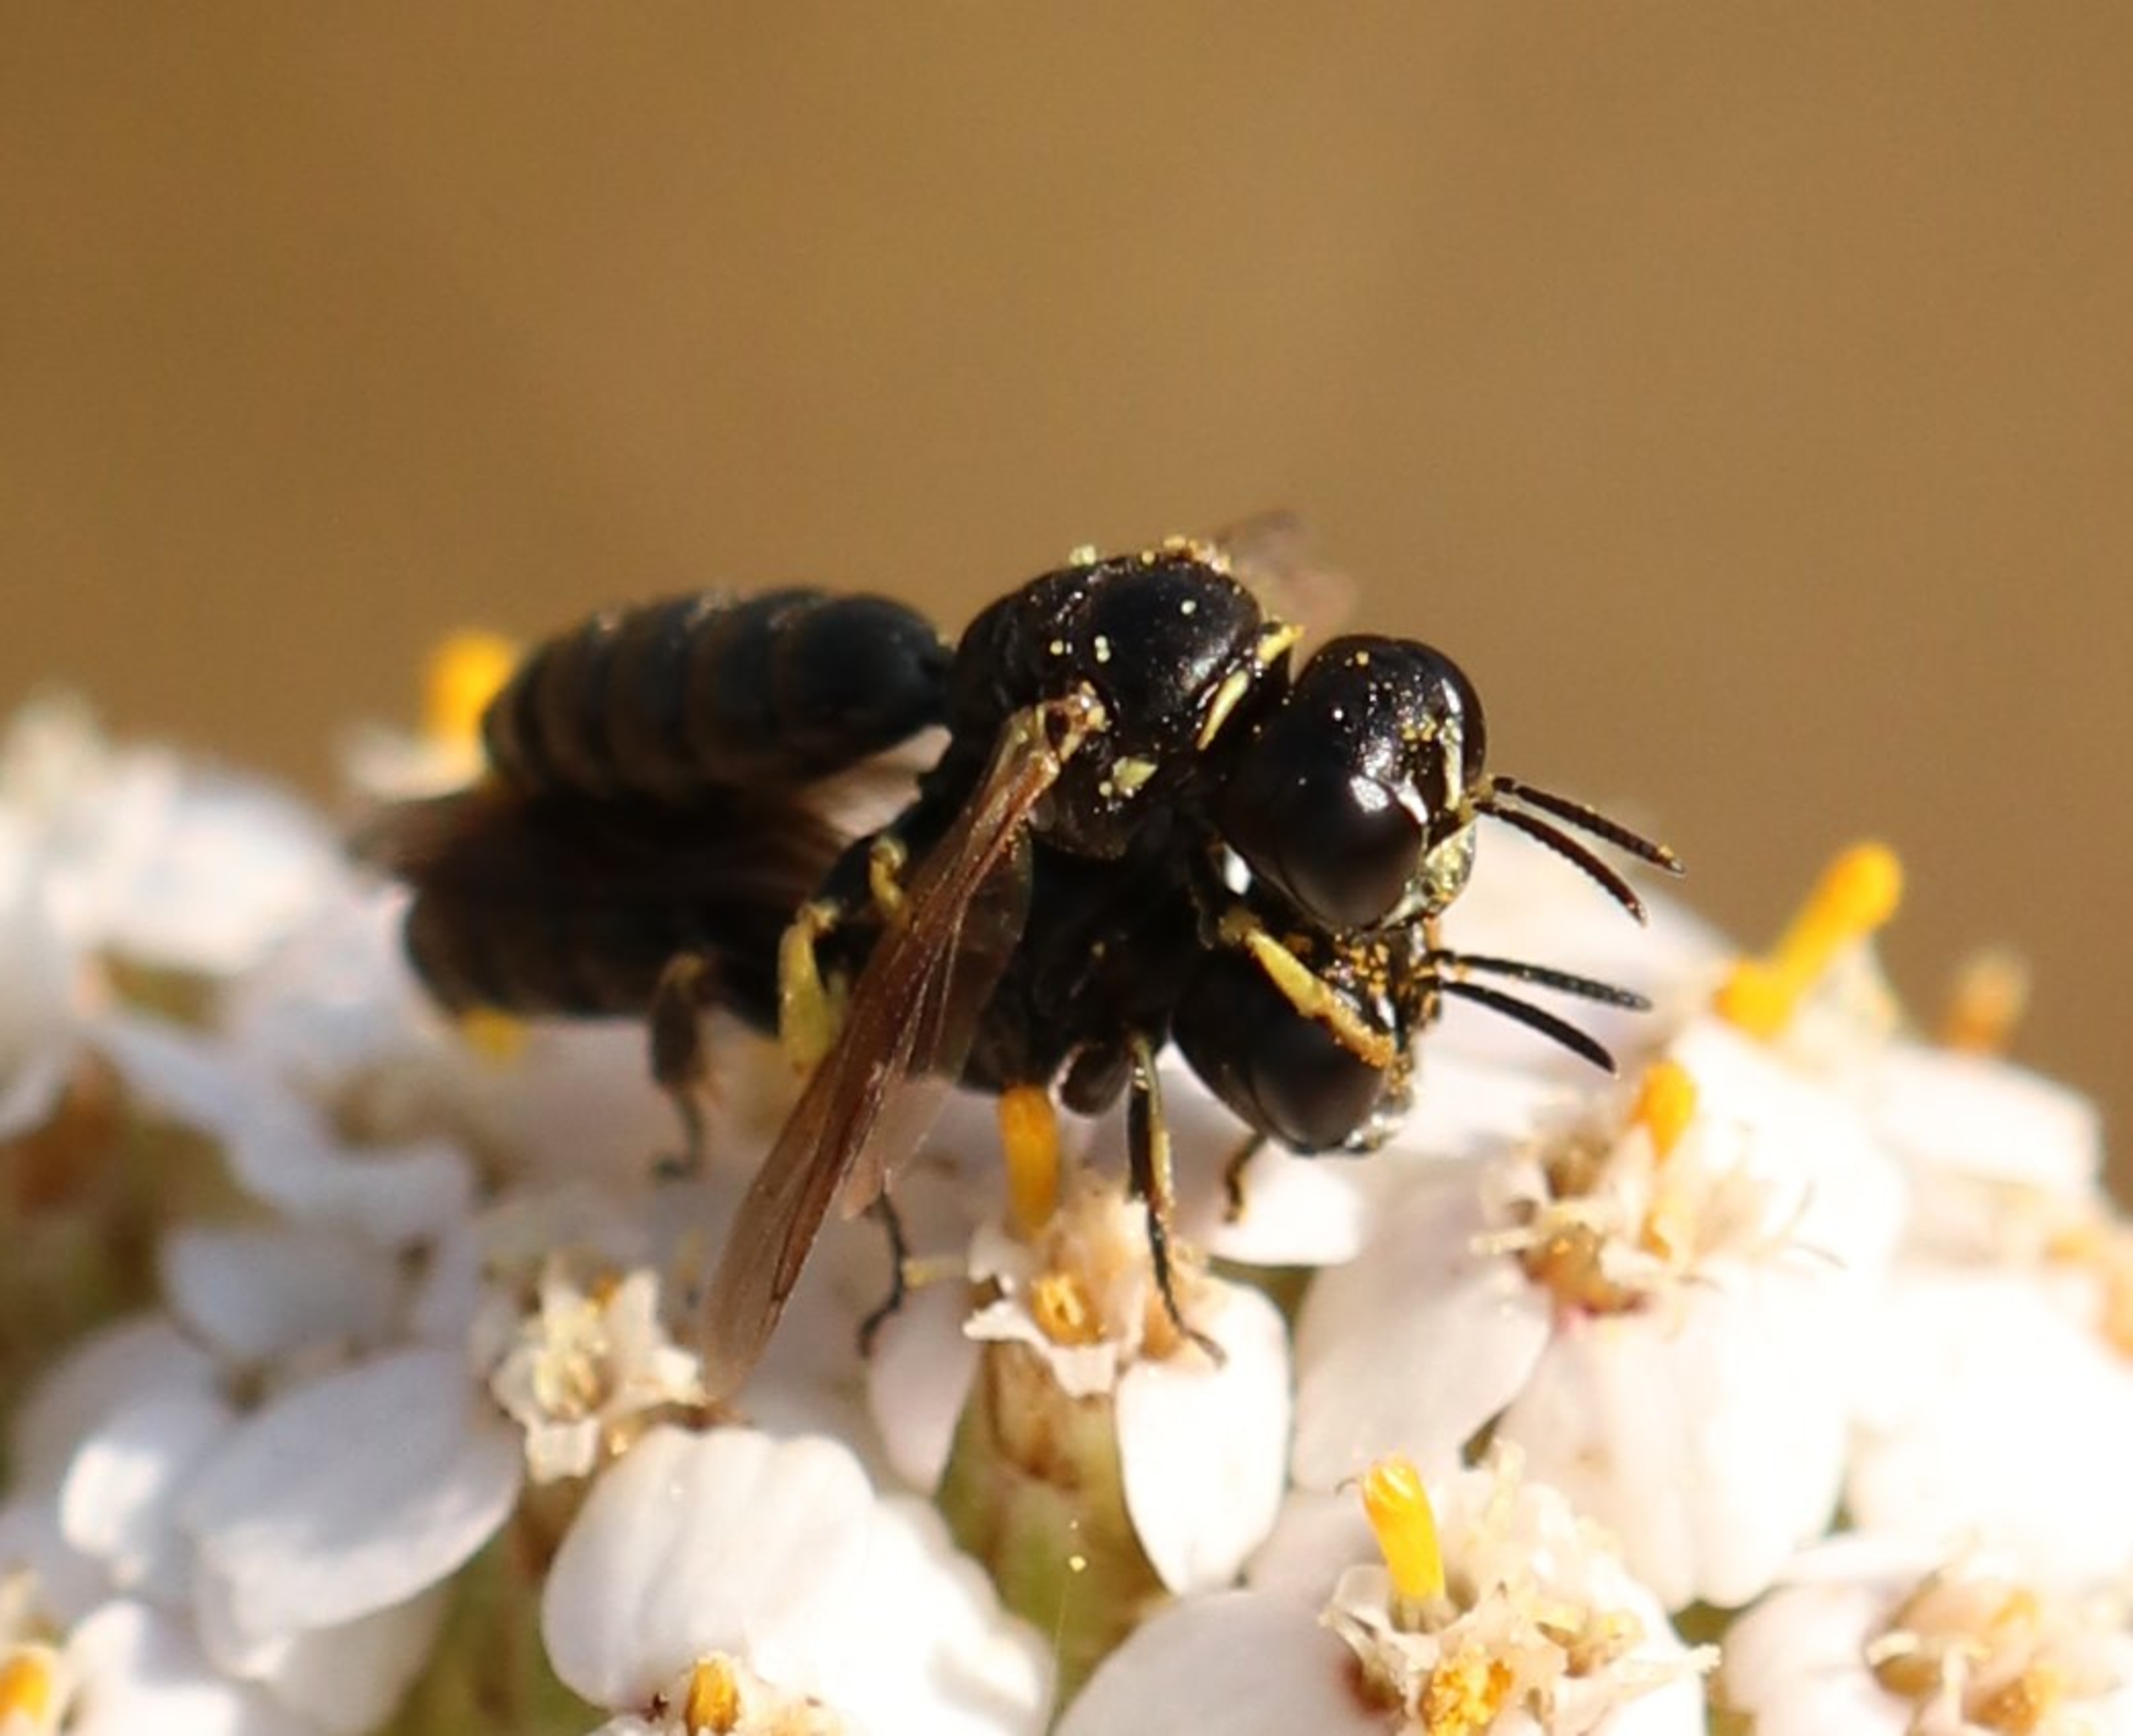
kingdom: Animalia
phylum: Arthropoda
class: Insecta
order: Hymenoptera
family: Crabronidae
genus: Lindenius
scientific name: Lindenius albilabris
